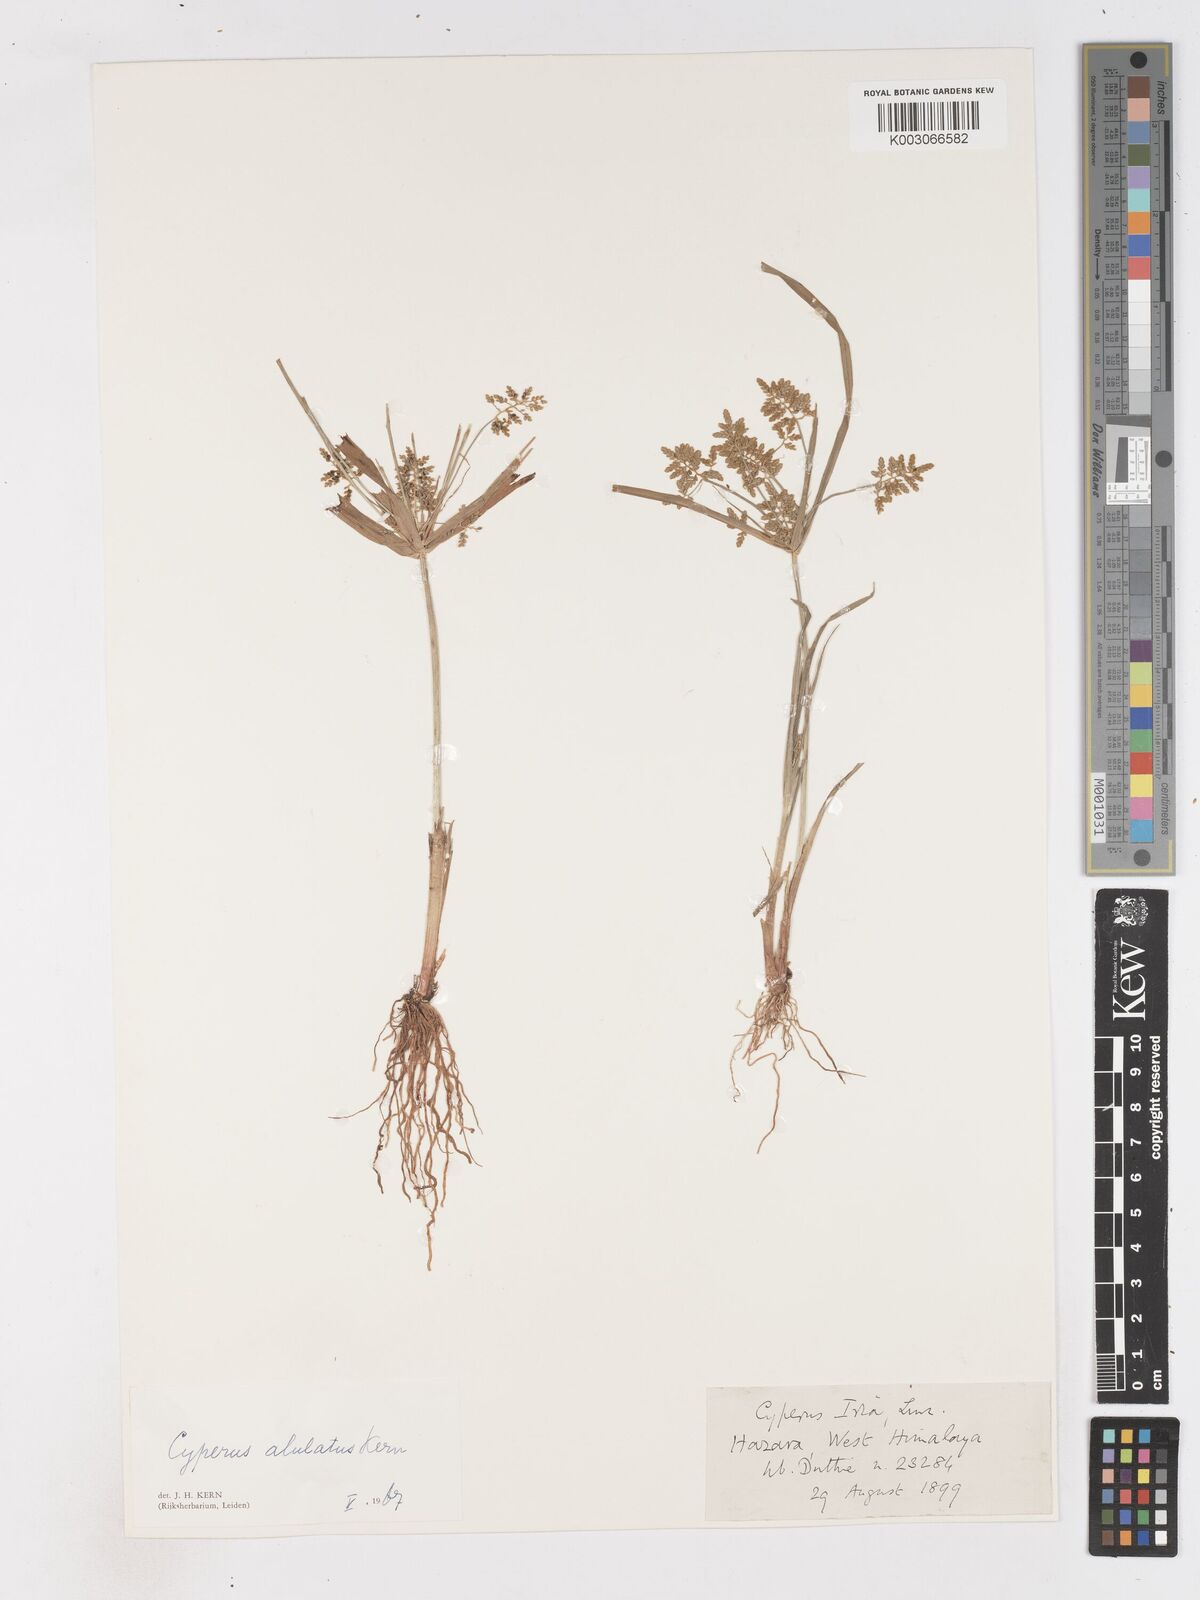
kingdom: Plantae
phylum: Tracheophyta
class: Liliopsida
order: Poales
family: Cyperaceae
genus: Cyperus
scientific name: Cyperus alulatus
